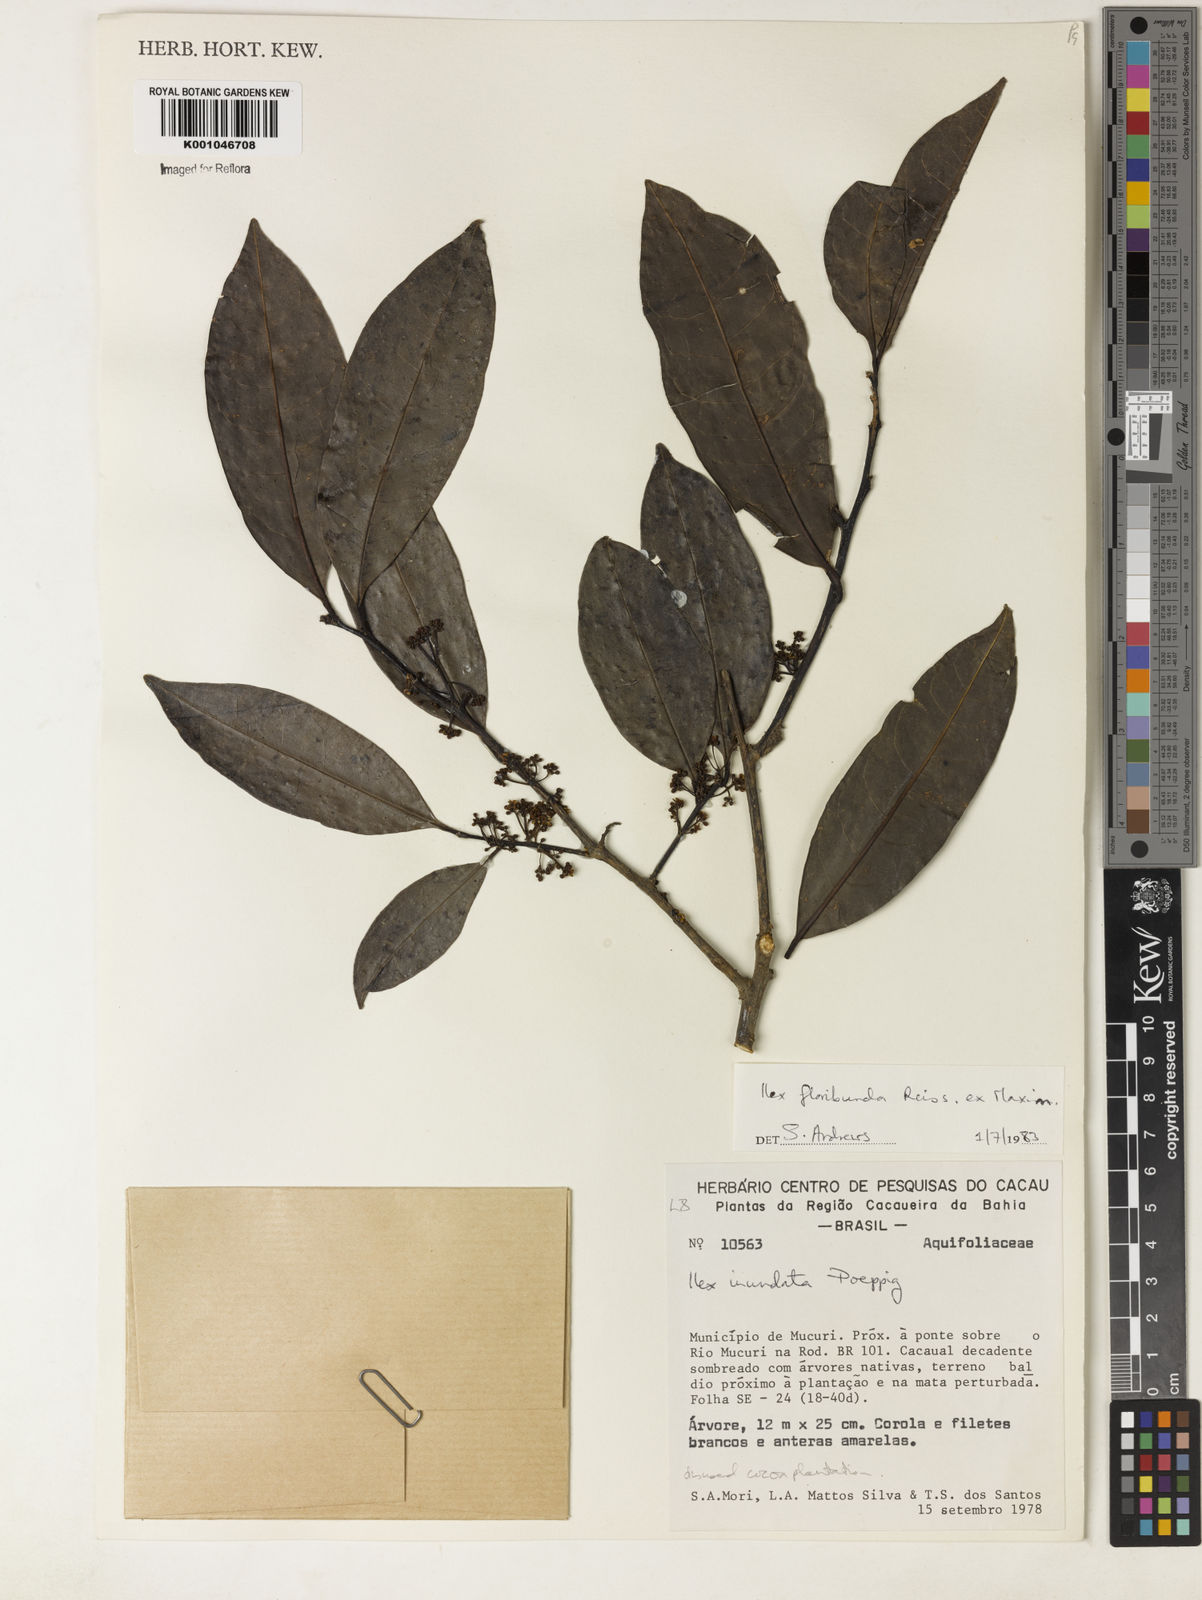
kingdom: Plantae
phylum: Tracheophyta
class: Magnoliopsida
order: Aquifoliales
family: Aquifoliaceae
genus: Ilex
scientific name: Ilex floribunda
